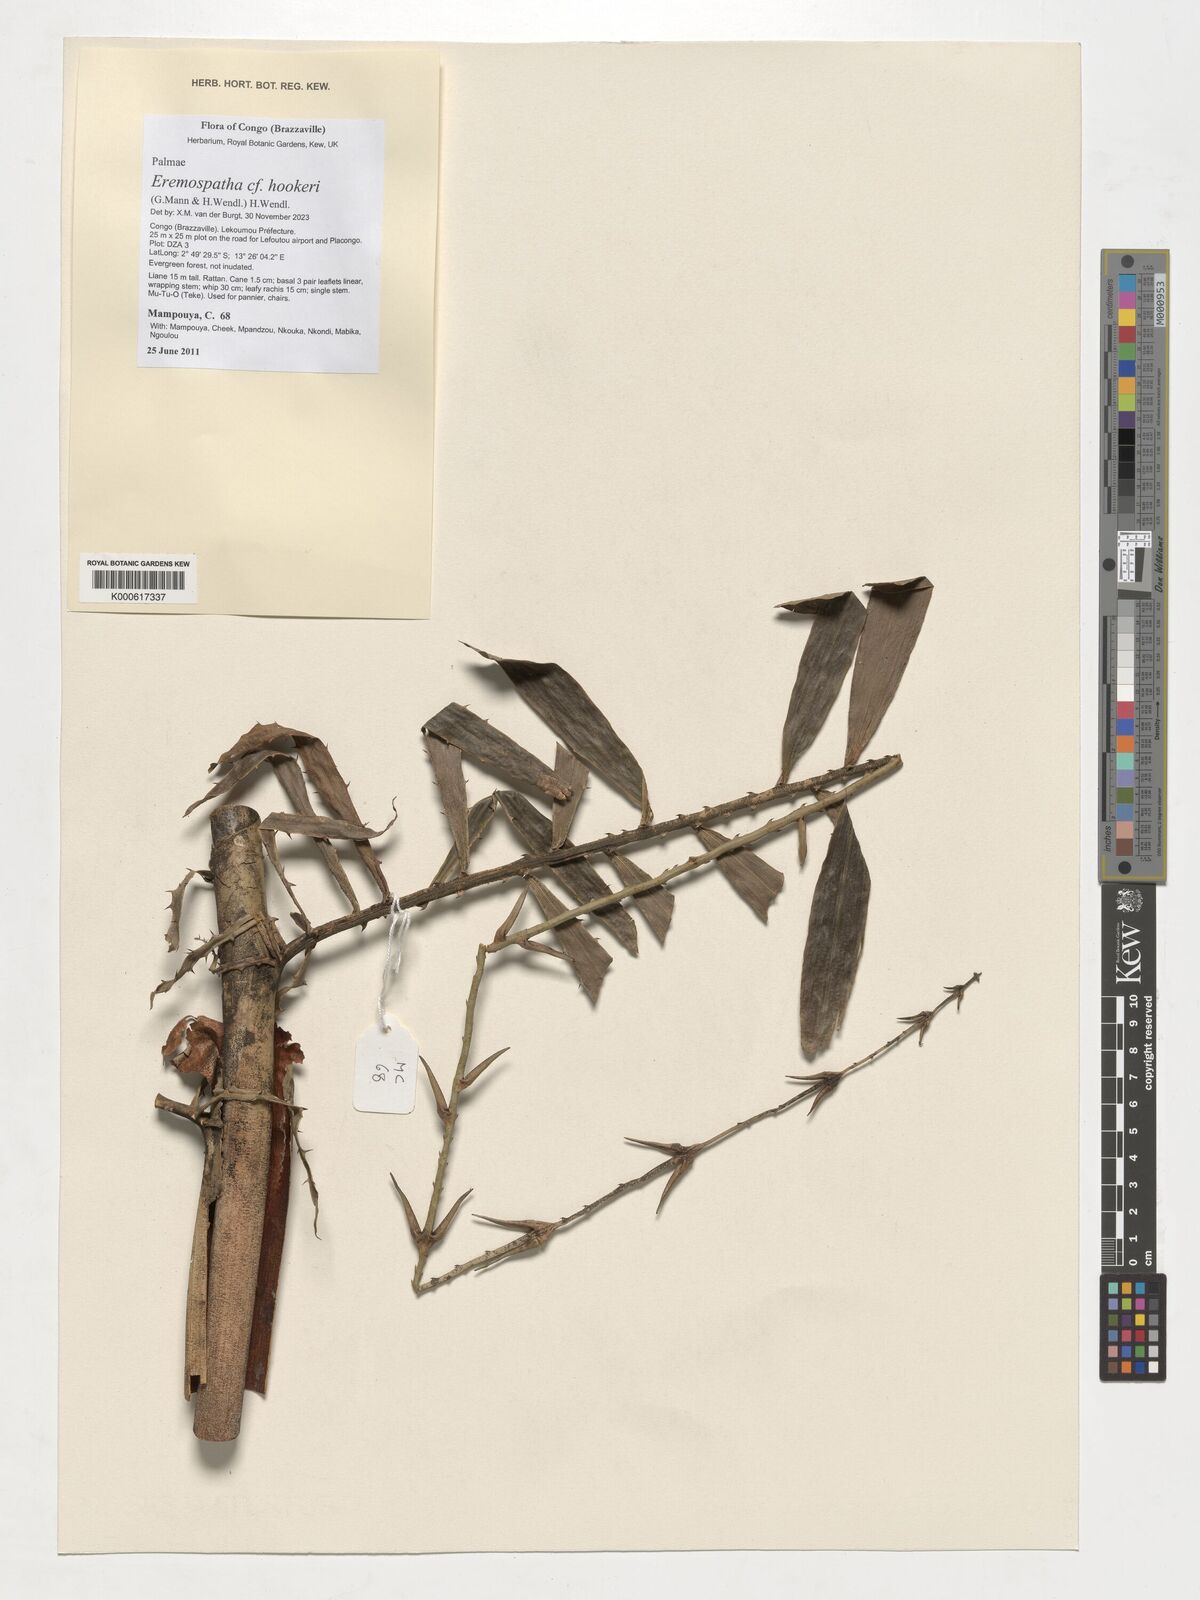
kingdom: Plantae
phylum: Tracheophyta
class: Liliopsida
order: Arecales
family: Arecaceae
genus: Eremospatha
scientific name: Eremospatha hookeri
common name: Rattan
